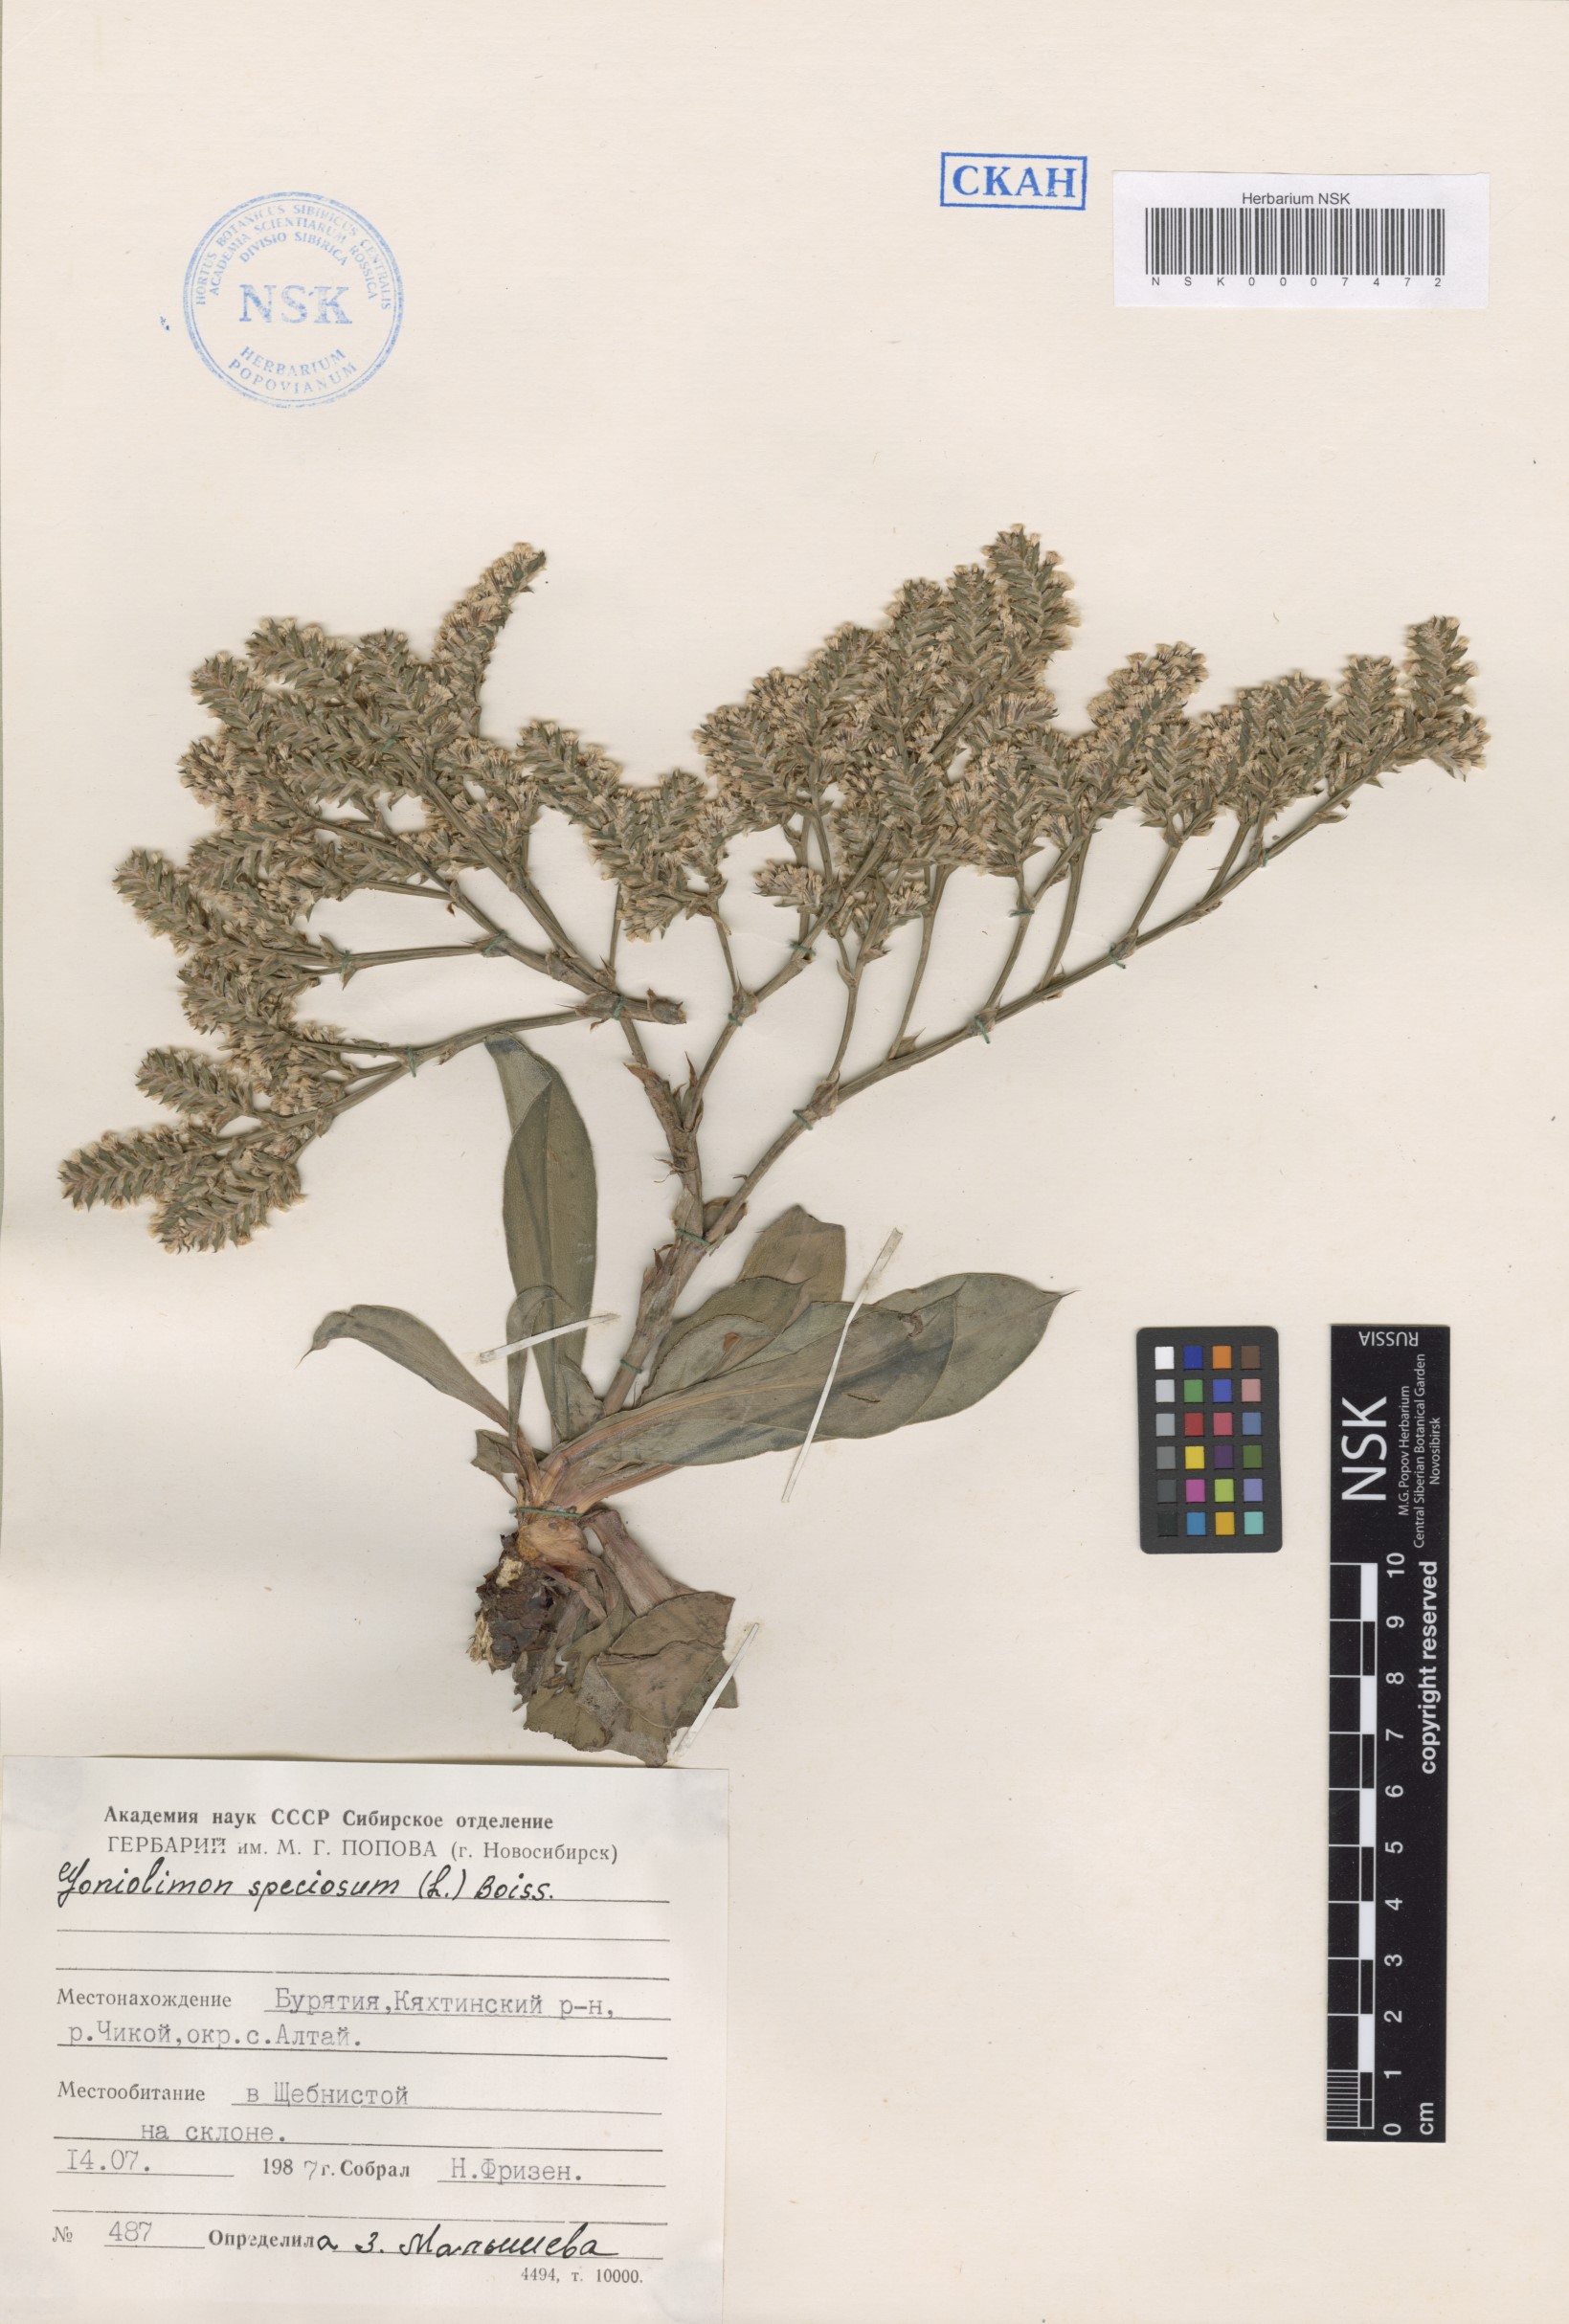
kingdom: Plantae
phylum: Tracheophyta
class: Magnoliopsida
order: Caryophyllales
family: Plumbaginaceae
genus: Goniolimon
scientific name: Goniolimon speciosum
